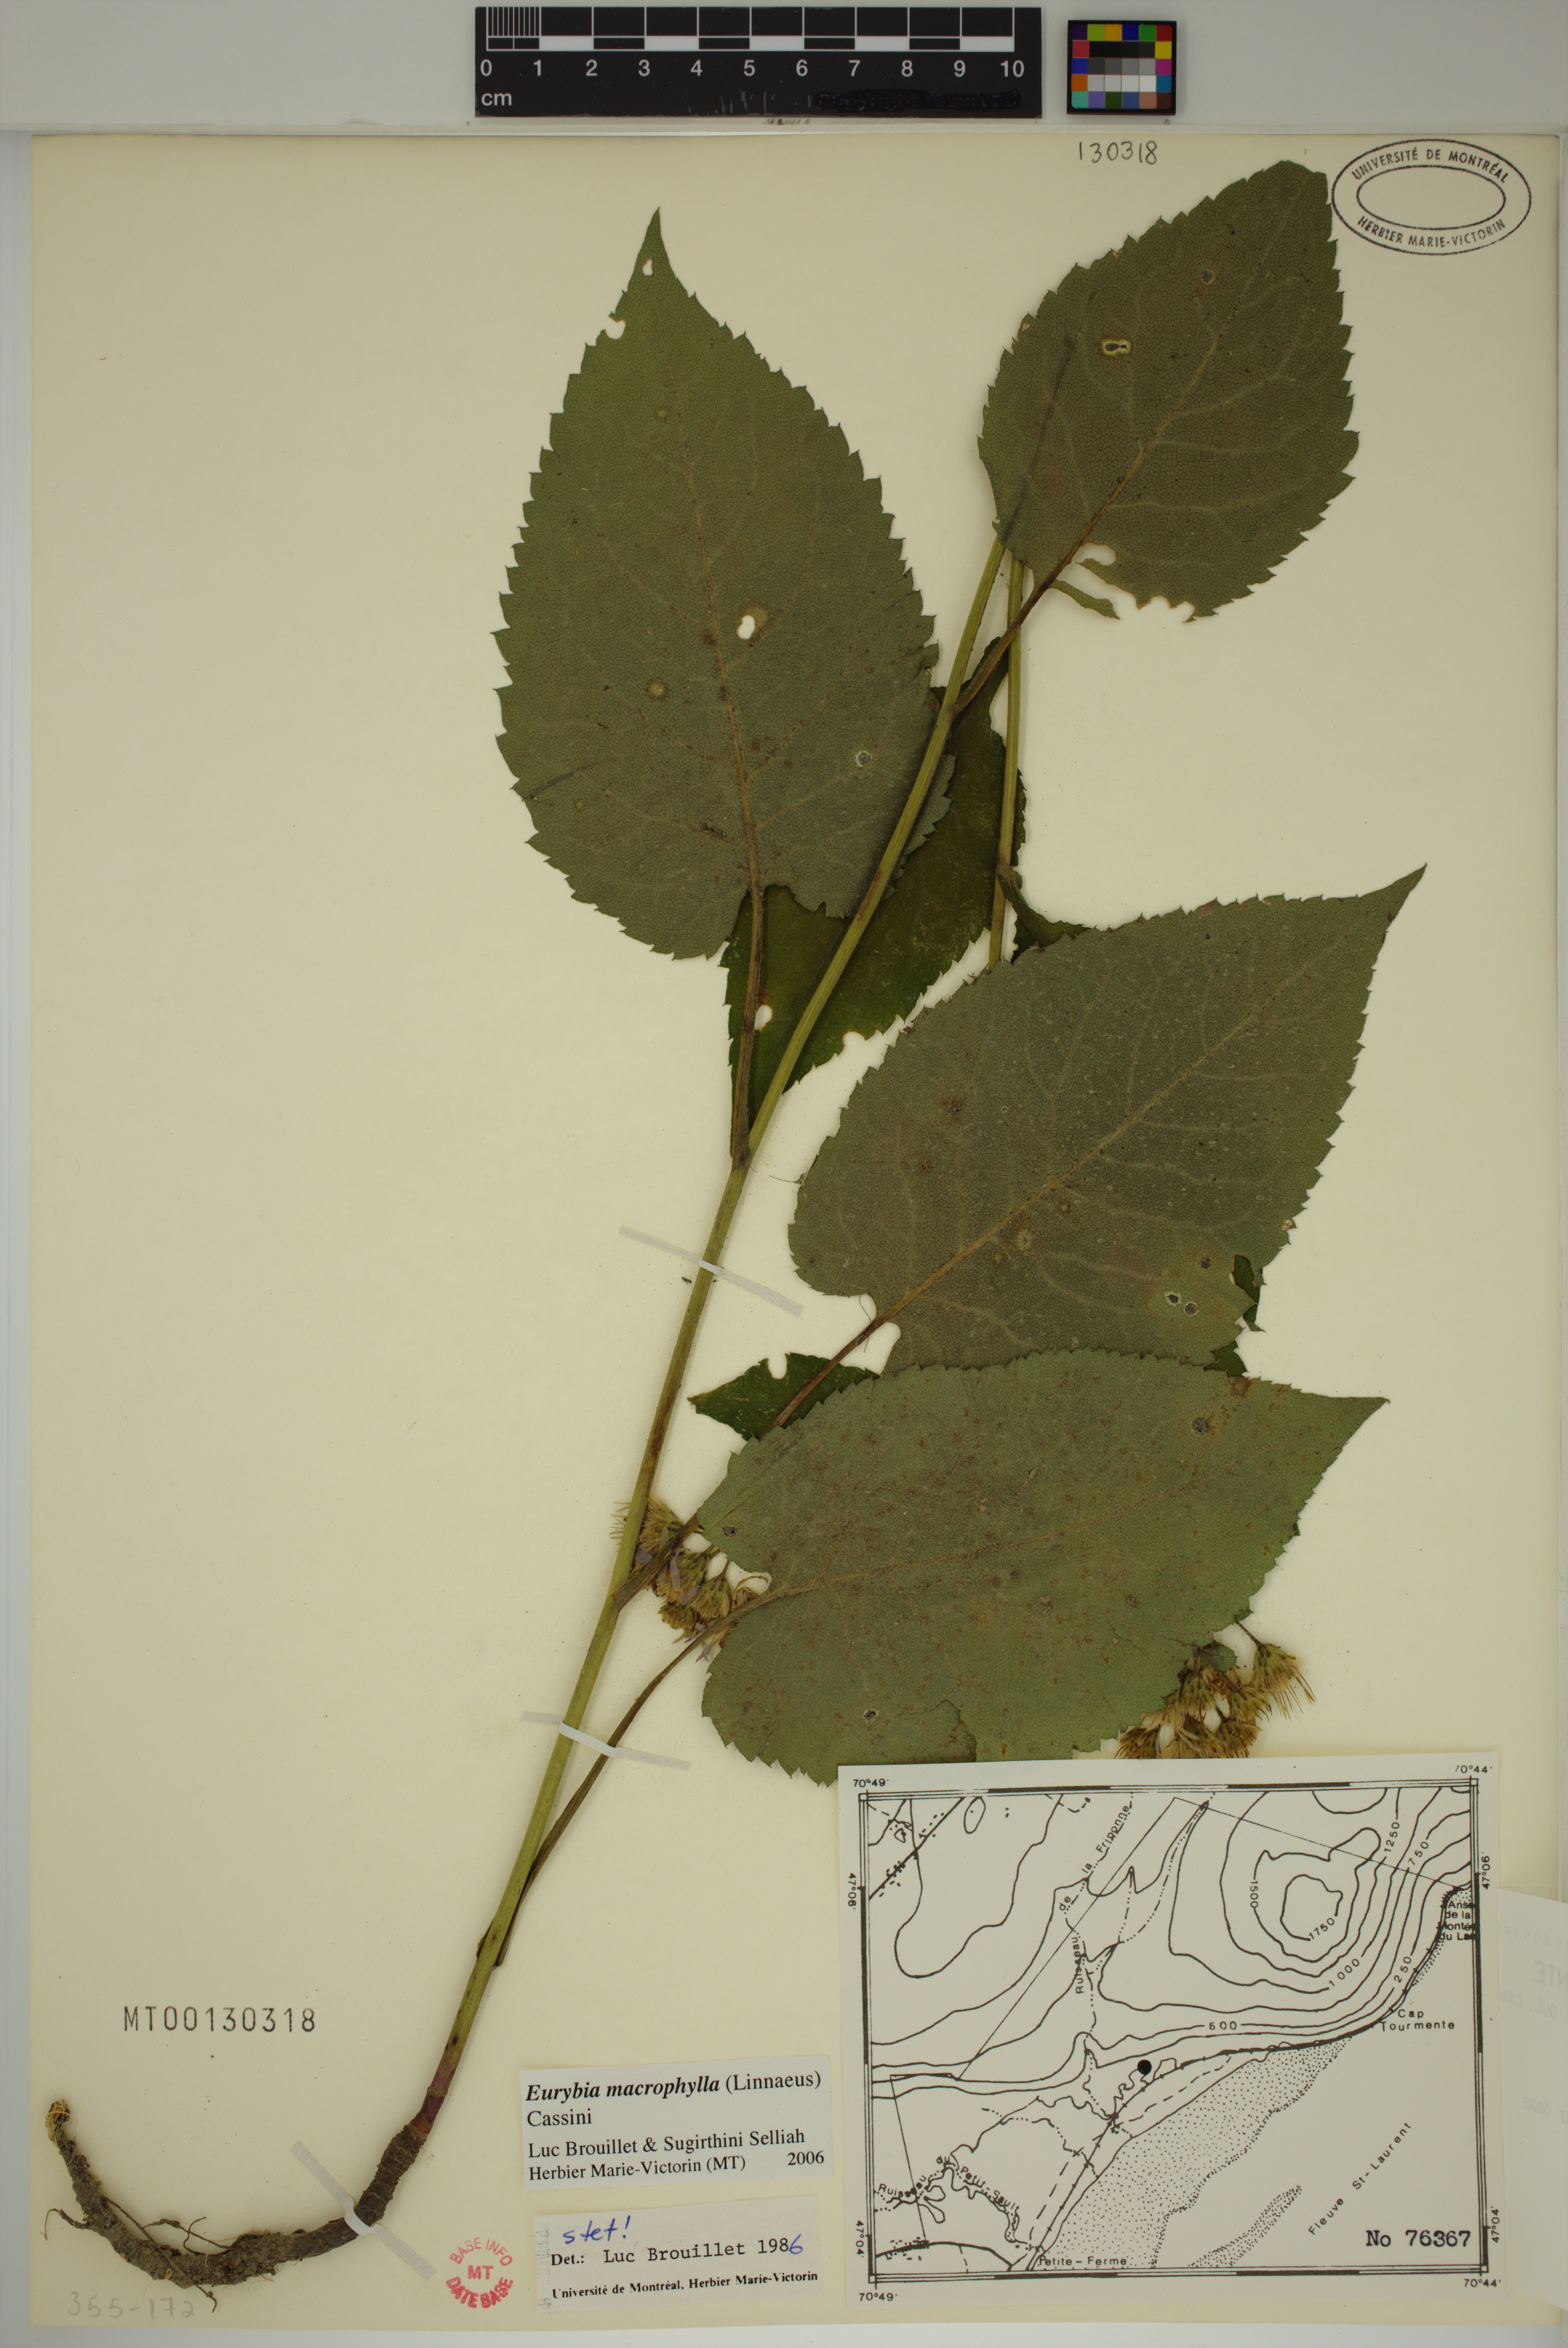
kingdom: Plantae
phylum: Tracheophyta
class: Magnoliopsida
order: Asterales
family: Asteraceae
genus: Eurybia
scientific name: Eurybia macrophylla
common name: Big-leaved aster
